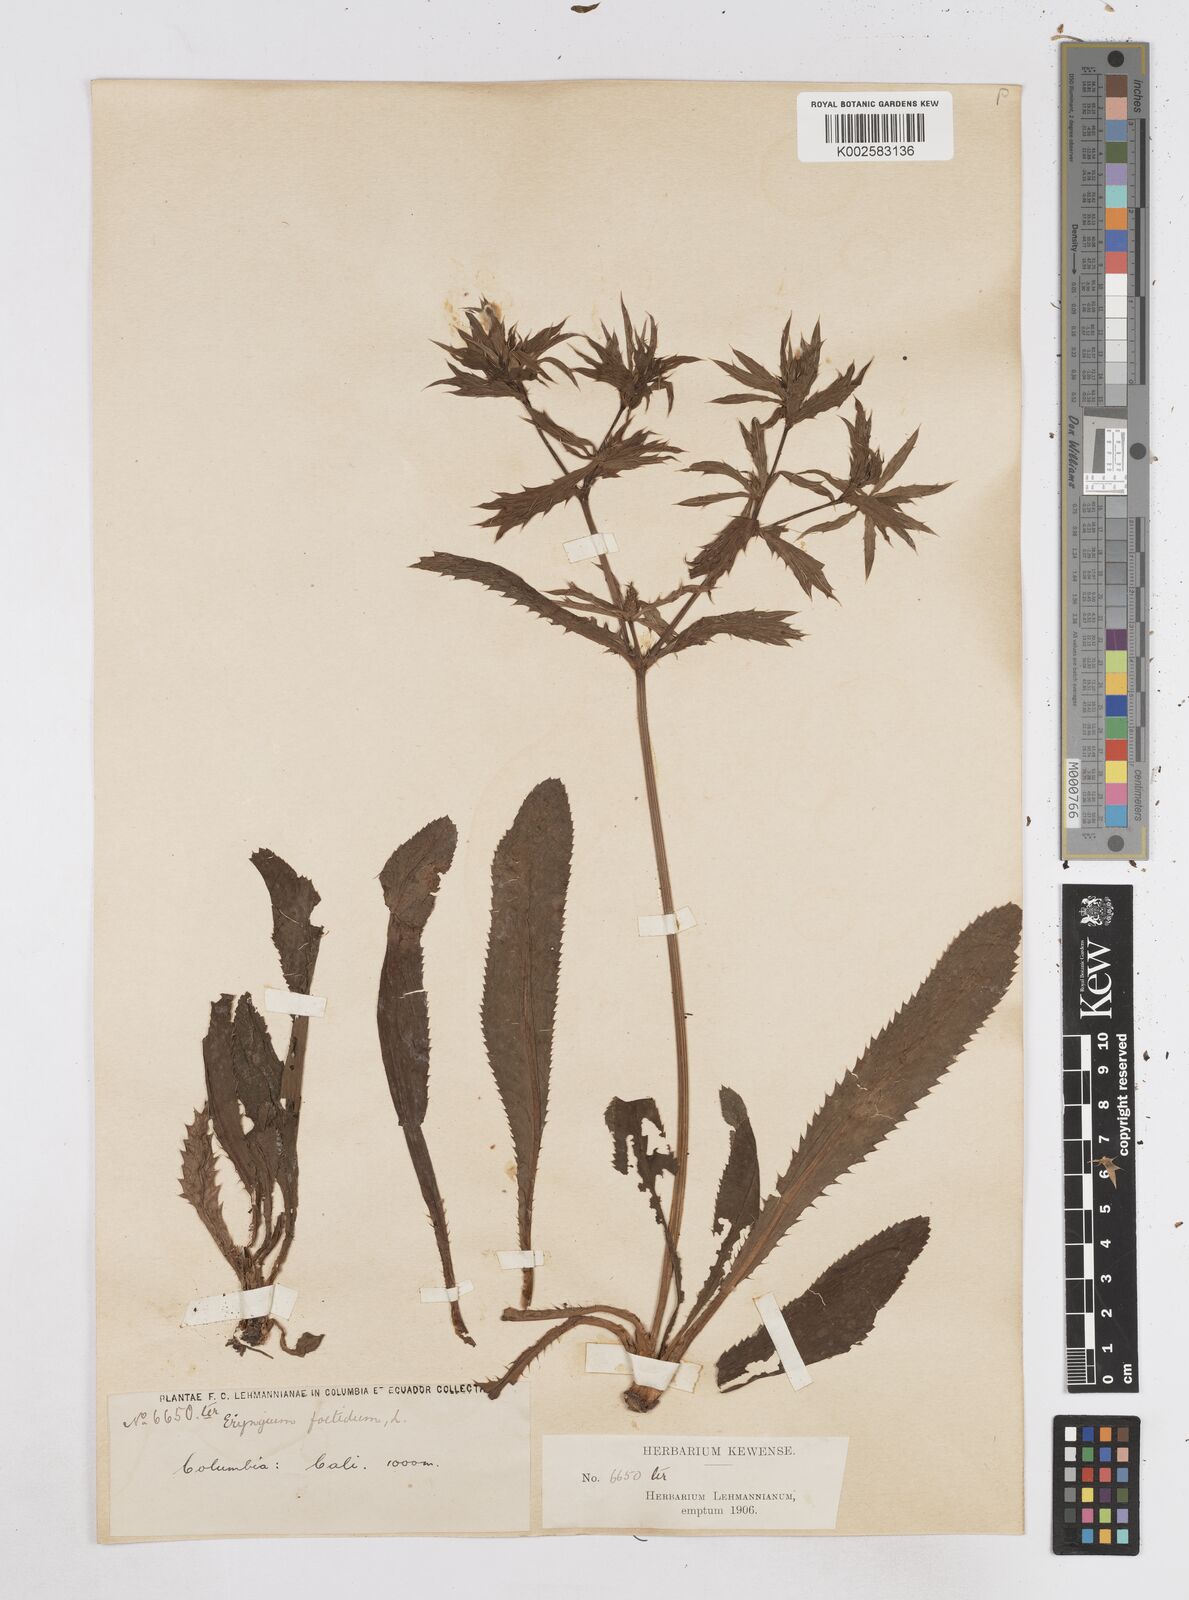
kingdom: Plantae
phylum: Tracheophyta
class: Magnoliopsida
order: Apiales
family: Apiaceae
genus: Eryngium
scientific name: Eryngium foetidum
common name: Fitweed
